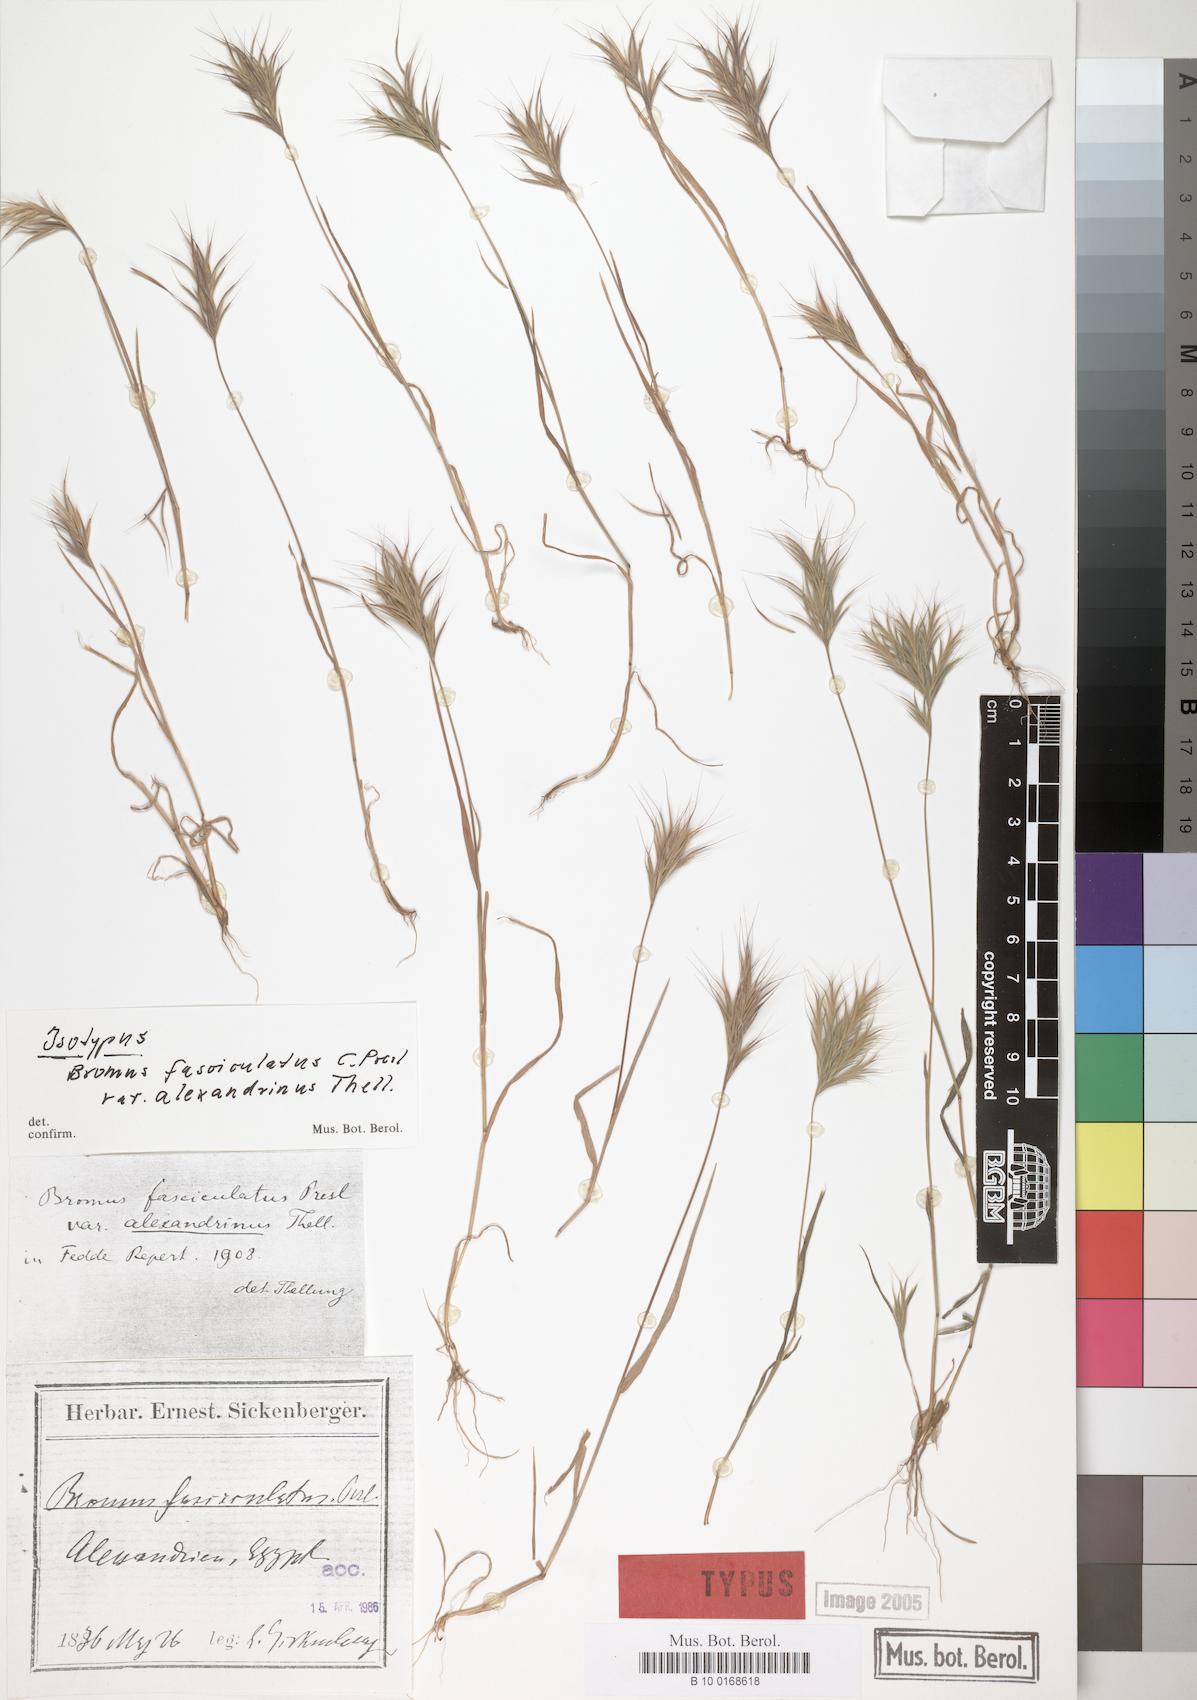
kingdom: Plantae
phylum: Tracheophyta
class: Liliopsida
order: Poales
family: Poaceae
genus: Bromus
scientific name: Bromus fasciculatus
